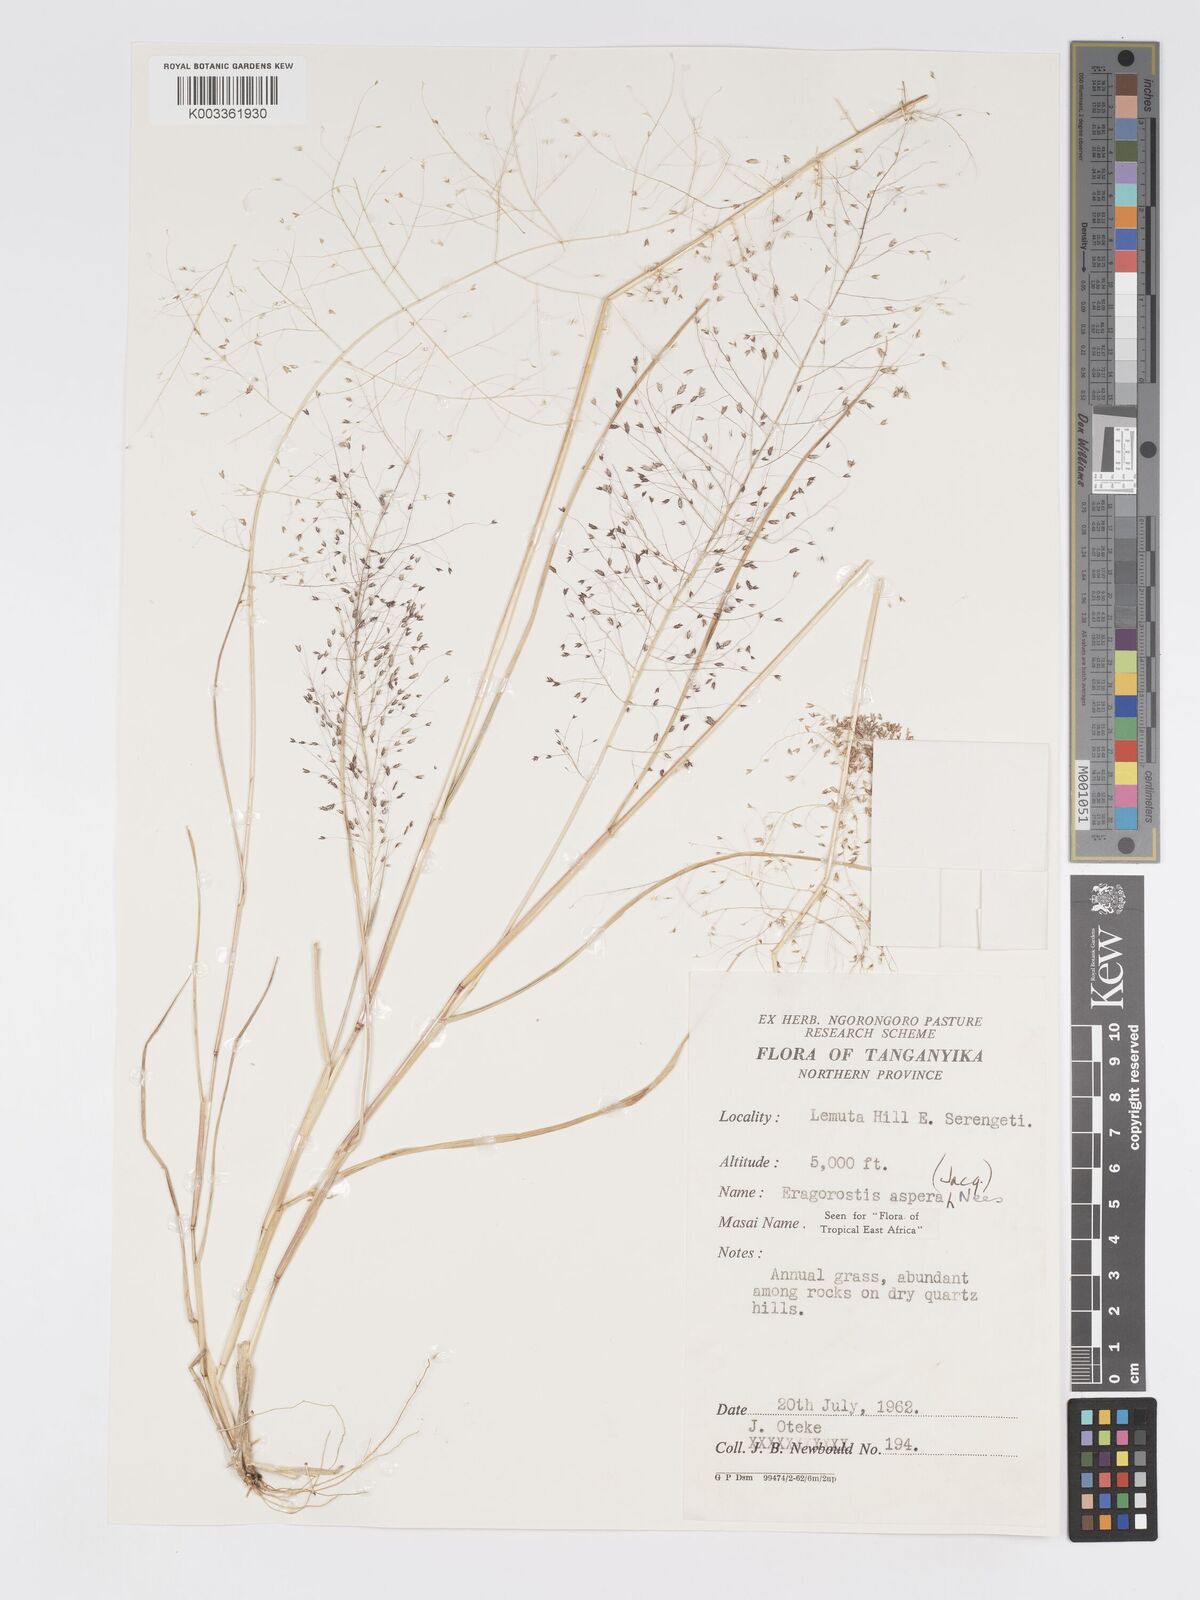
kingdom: Plantae
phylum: Tracheophyta
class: Liliopsida
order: Poales
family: Poaceae
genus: Eragrostis
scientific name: Eragrostis aspera
